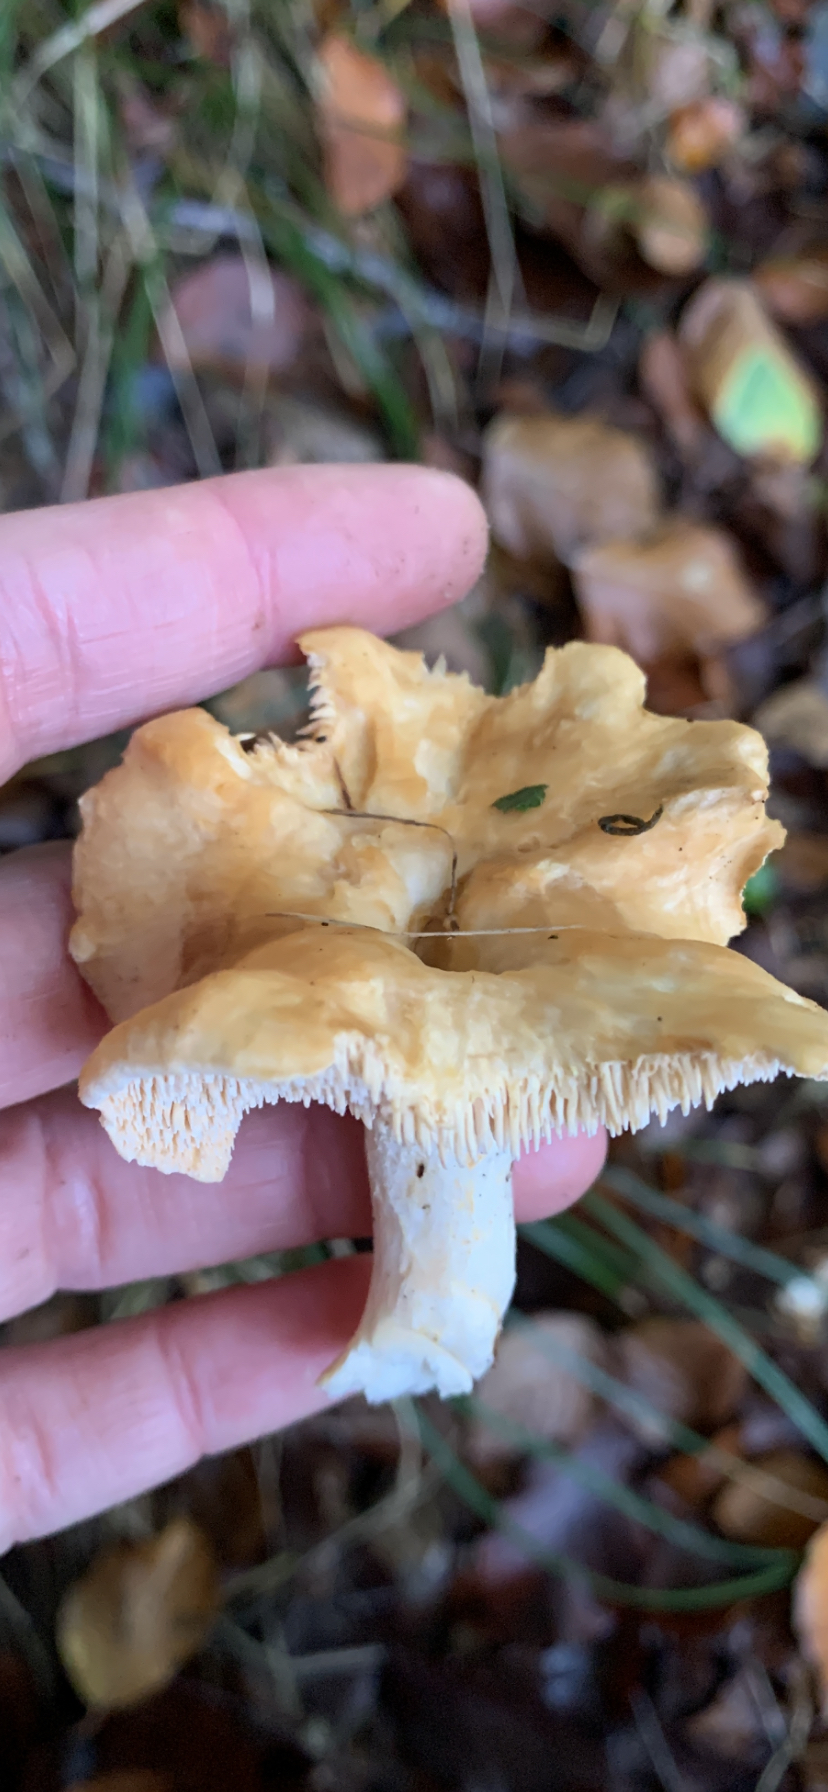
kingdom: Fungi
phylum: Basidiomycota
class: Agaricomycetes
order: Cantharellales
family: Hydnaceae
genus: Hydnum
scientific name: Hydnum
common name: pigsvamp
